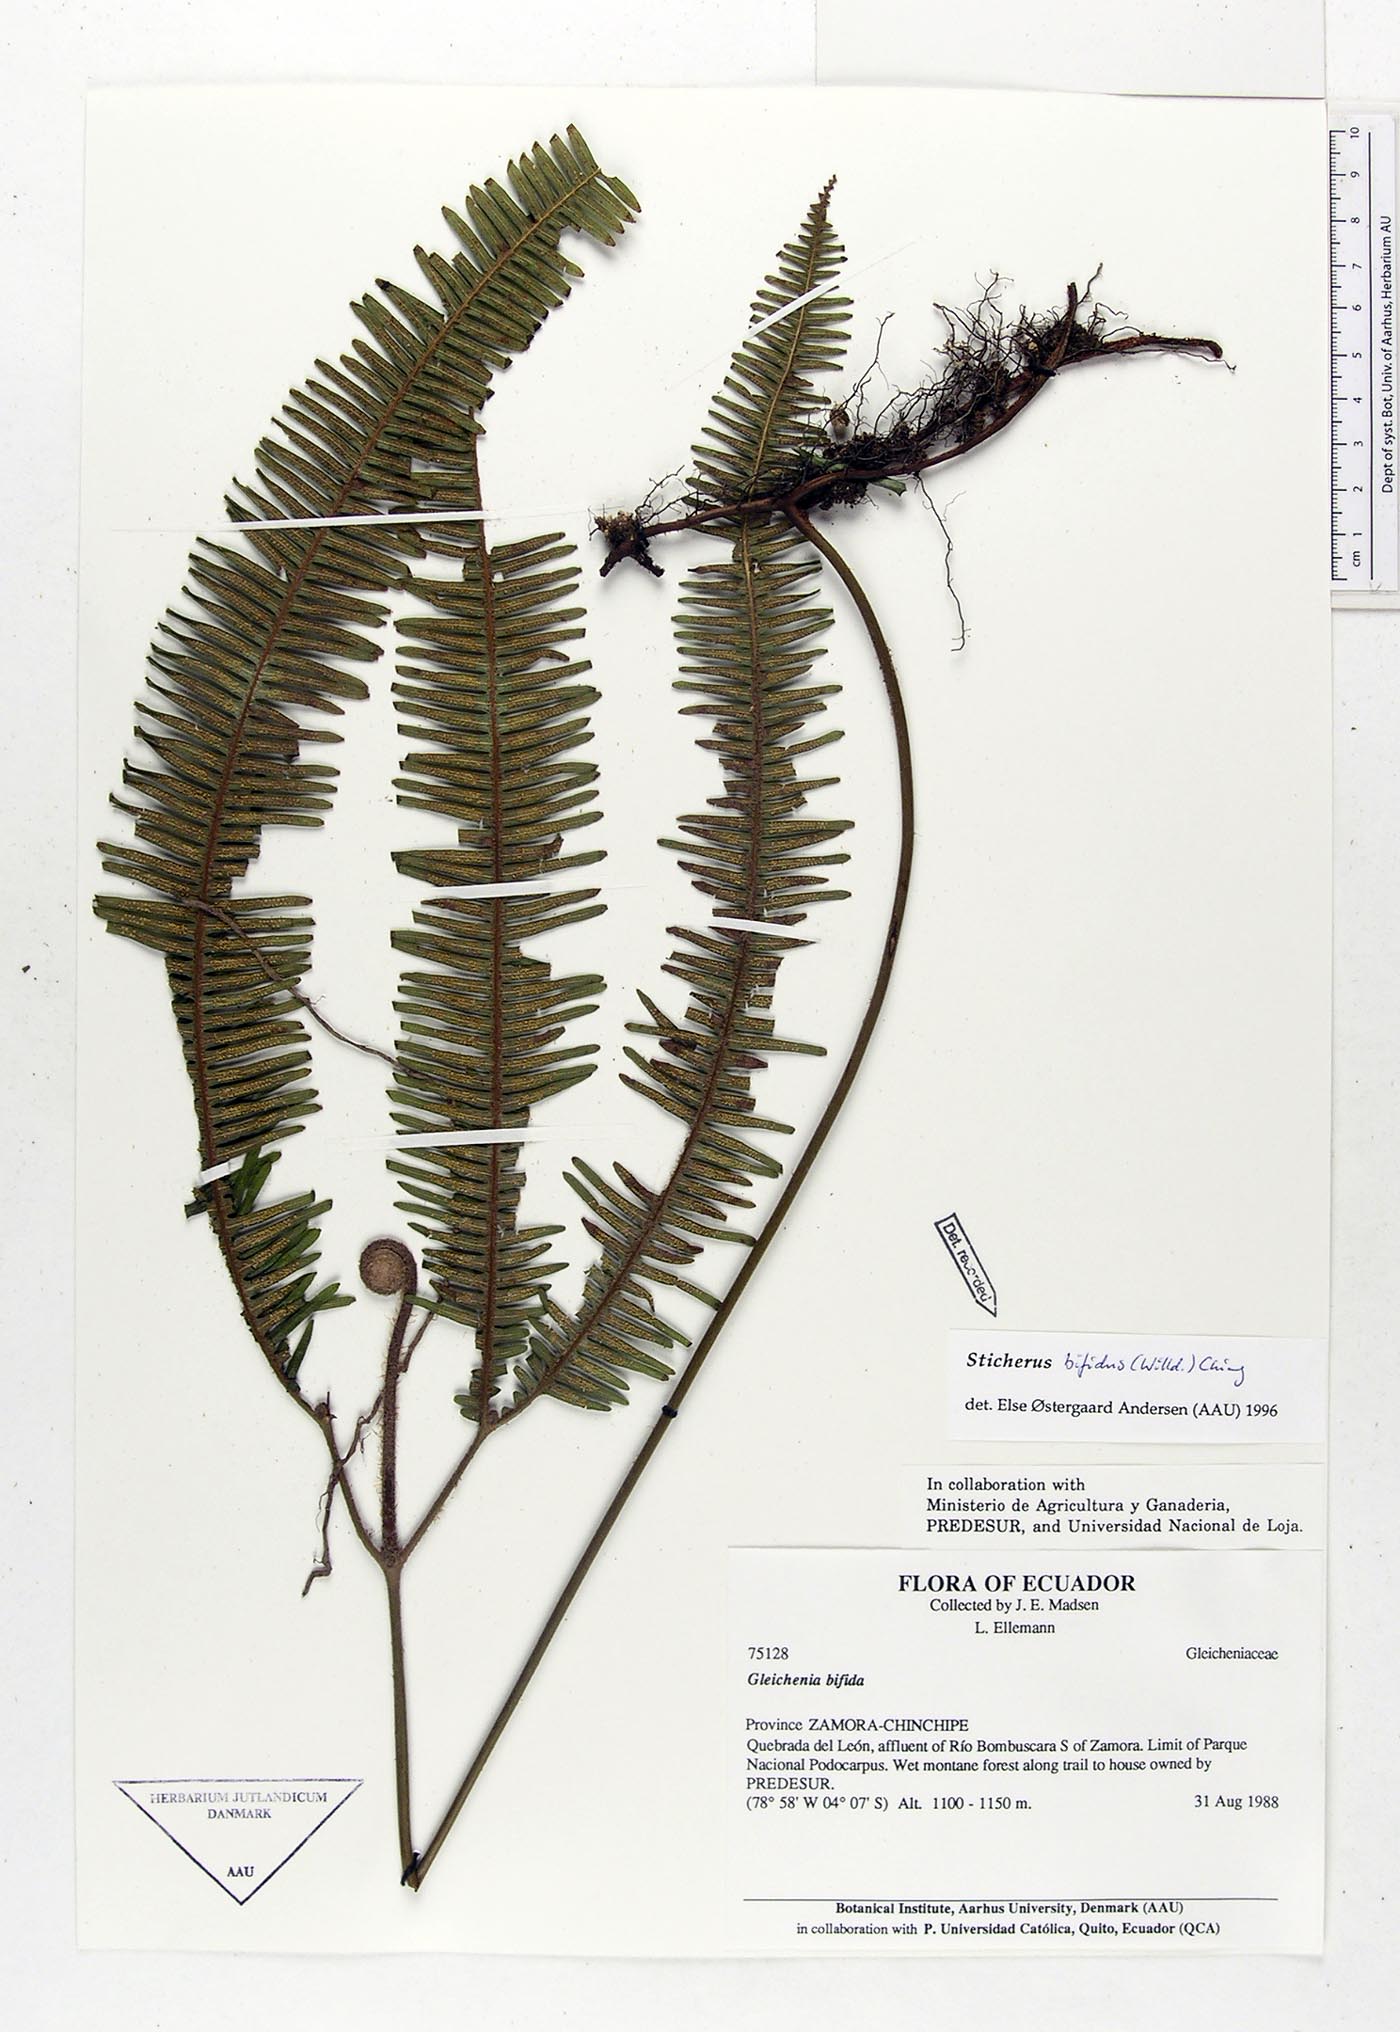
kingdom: Plantae
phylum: Tracheophyta
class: Polypodiopsida
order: Gleicheniales
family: Gleicheniaceae
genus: Sticherus
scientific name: Sticherus bifidus
